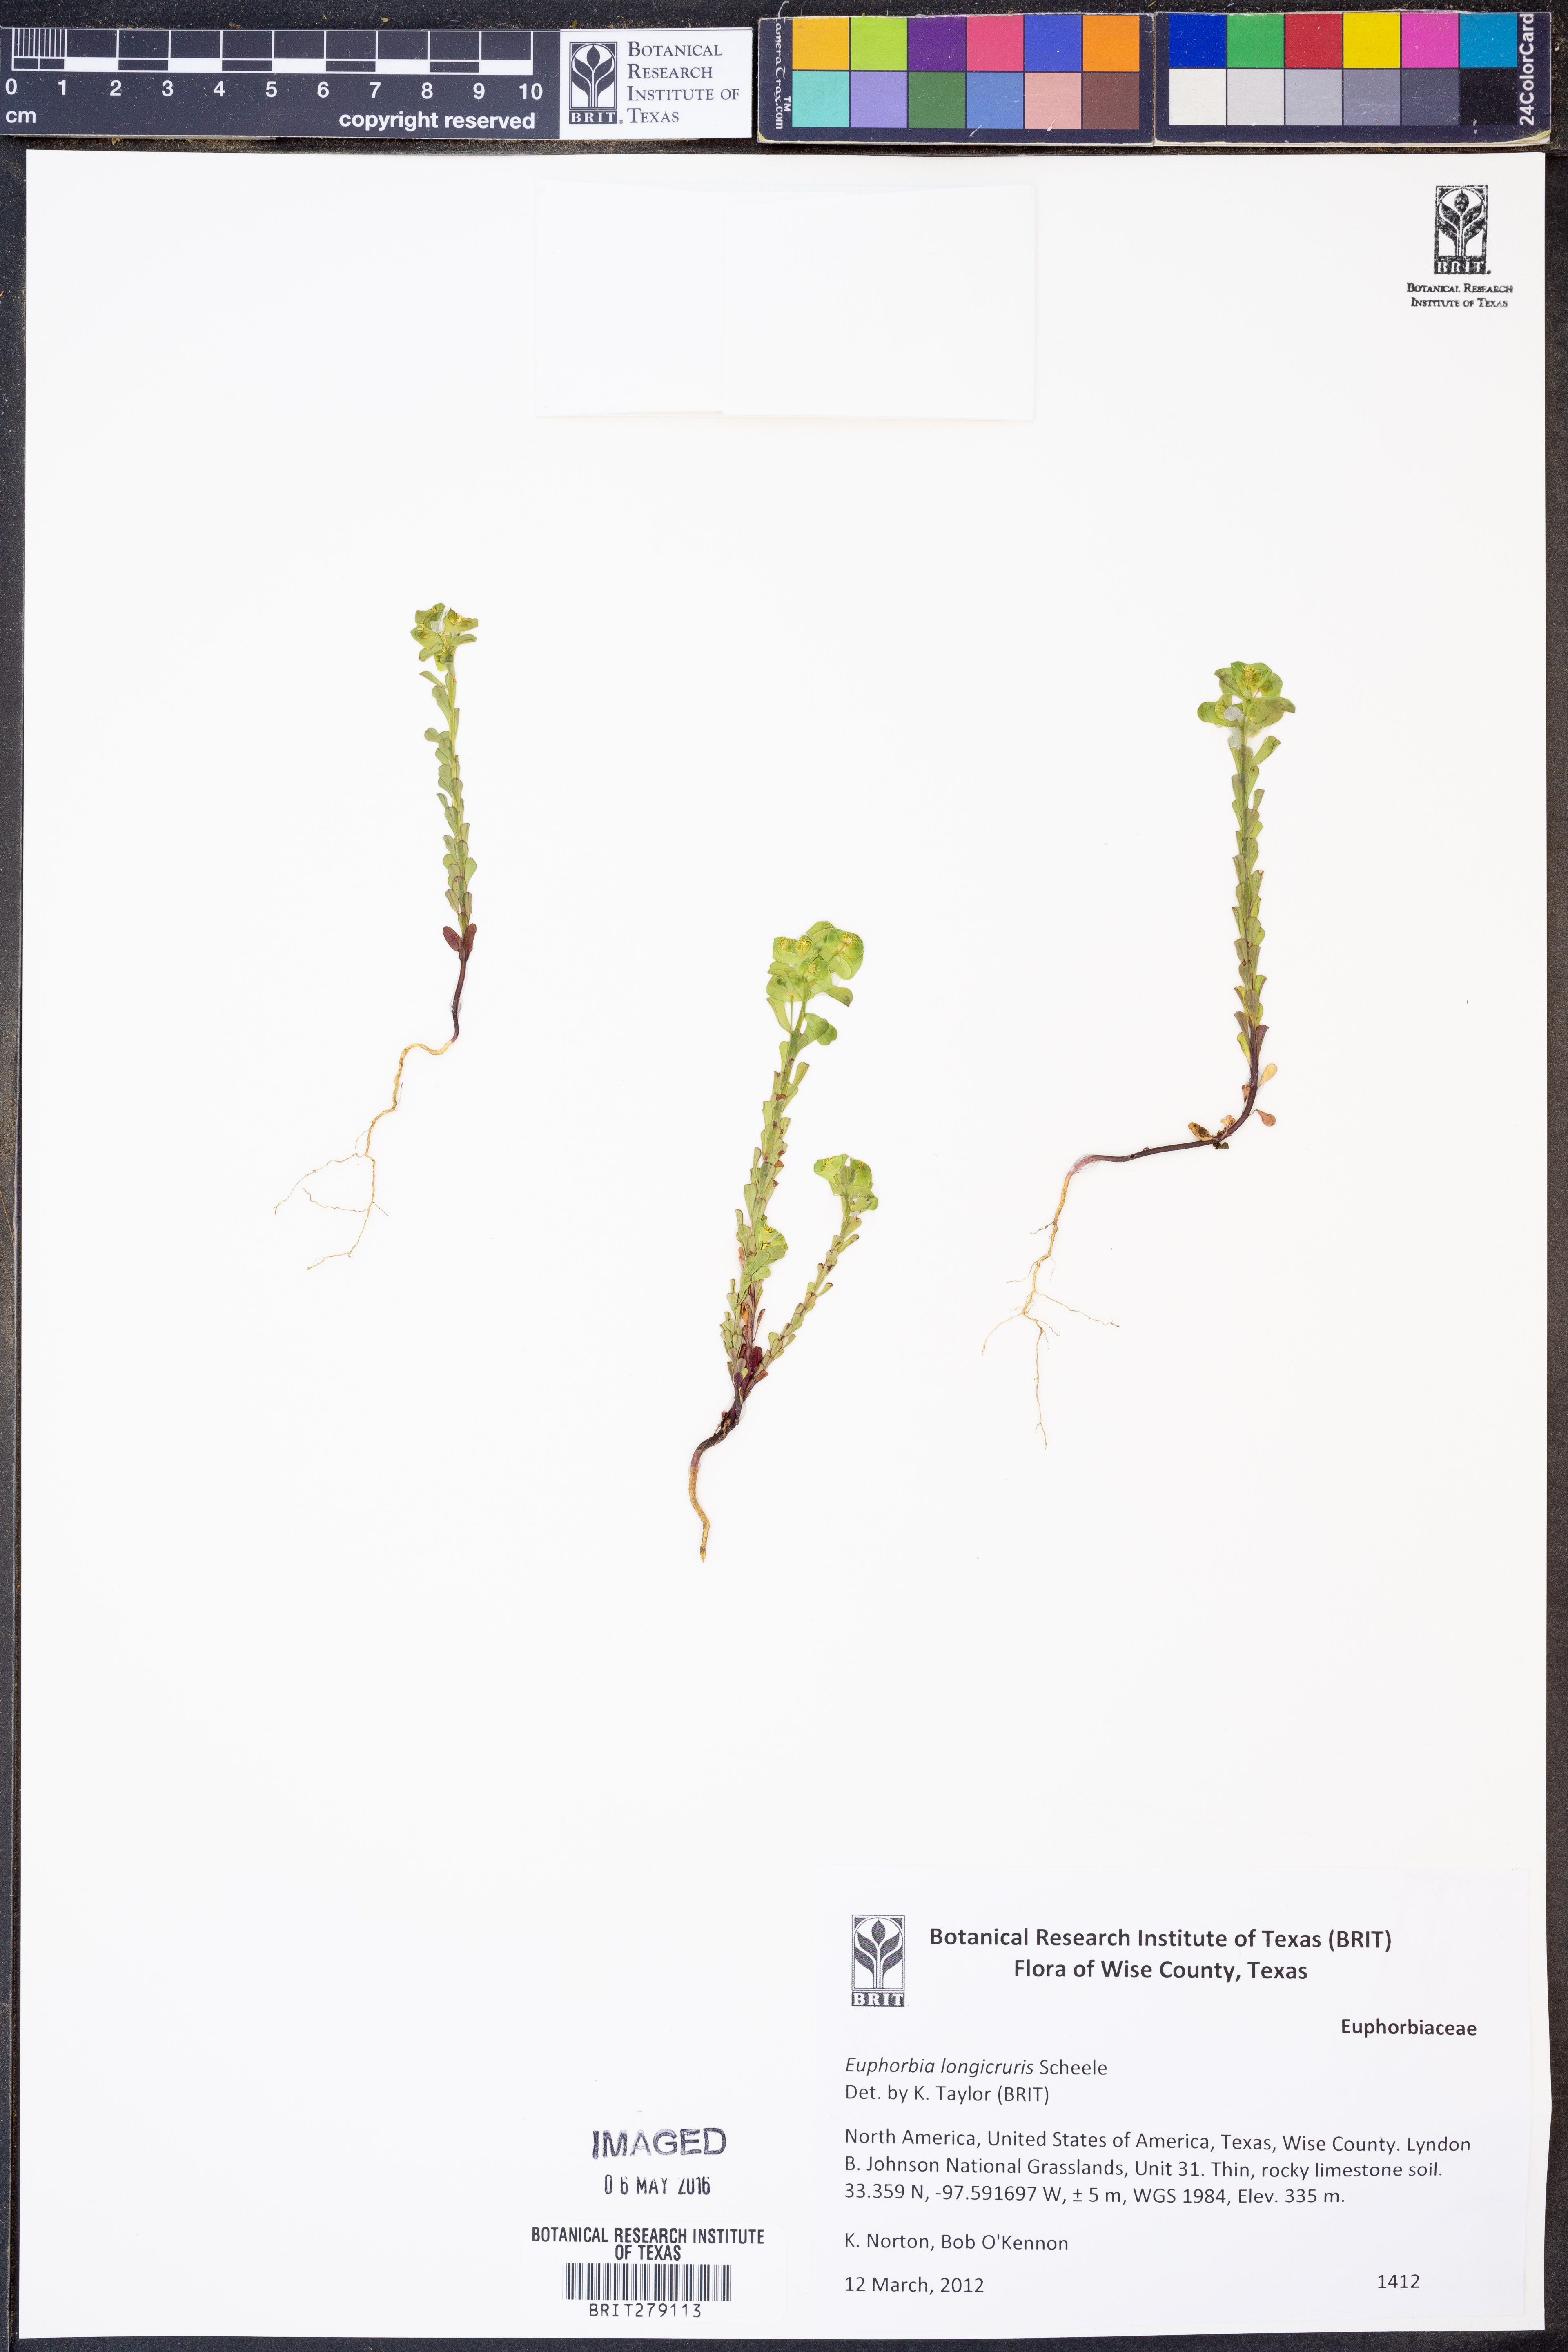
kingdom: Plantae
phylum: Tracheophyta
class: Magnoliopsida
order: Malpighiales
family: Euphorbiaceae
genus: Euphorbia
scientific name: Euphorbia longicruris
